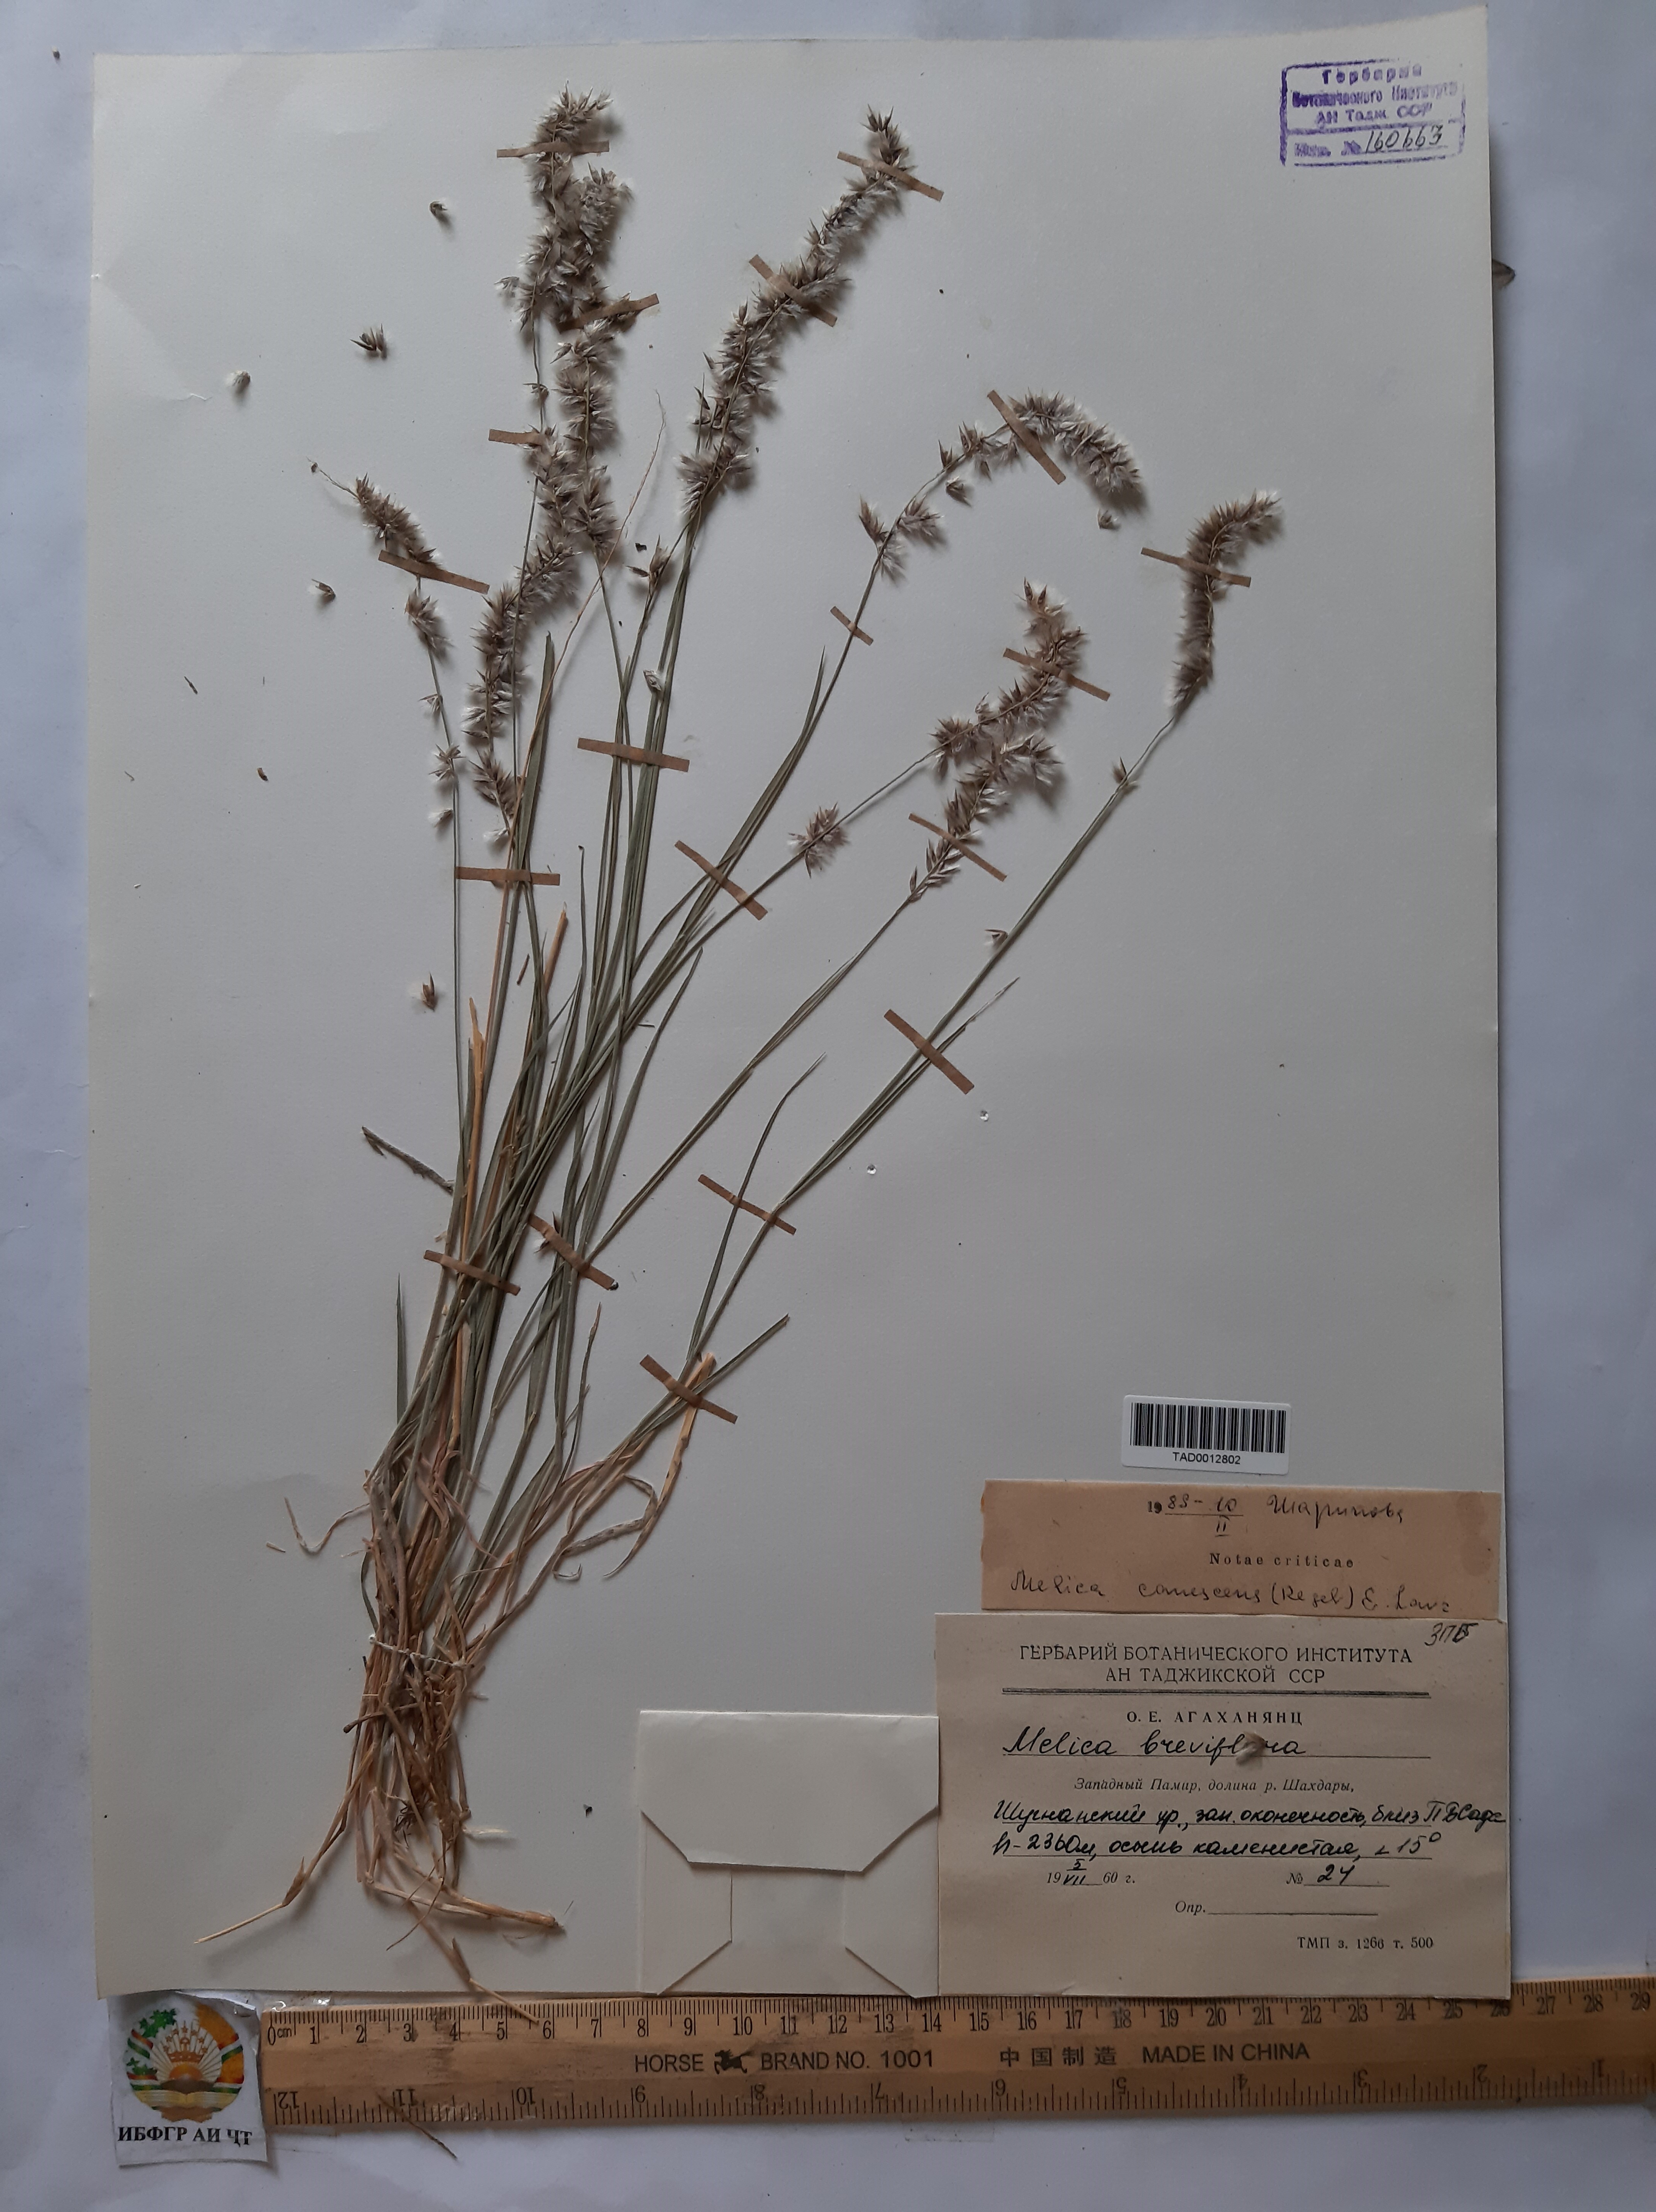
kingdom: Plantae
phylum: Tracheophyta
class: Liliopsida
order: Poales
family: Poaceae
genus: Melica
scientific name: Melica persica
